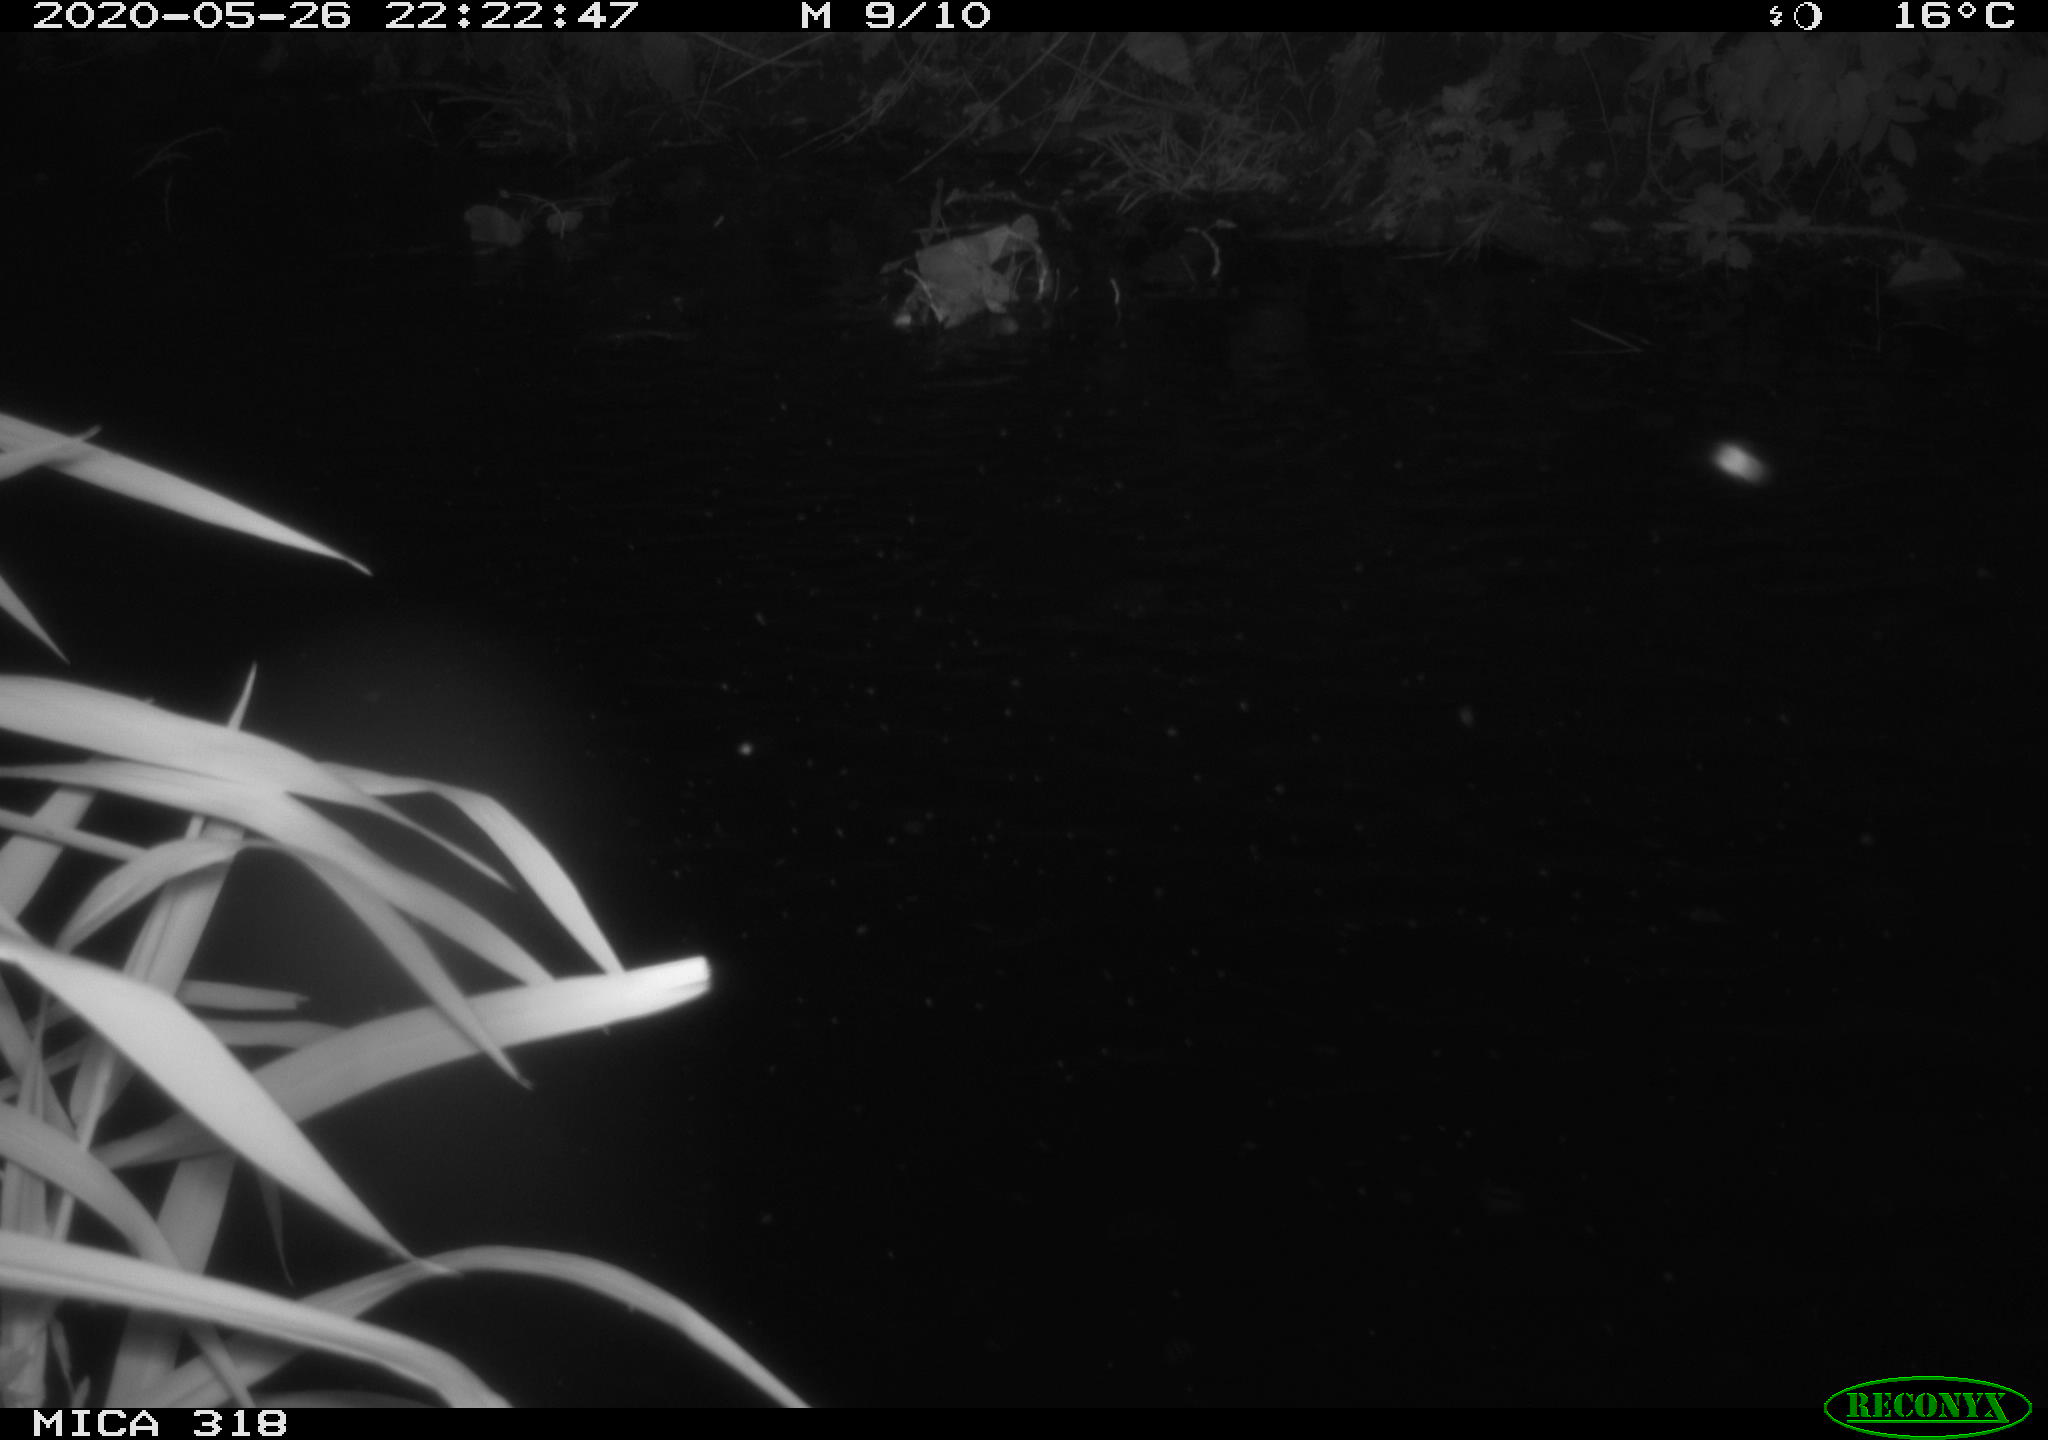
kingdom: Animalia
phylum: Chordata
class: Aves
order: Anseriformes
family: Anatidae
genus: Anas
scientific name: Anas platyrhynchos
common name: Mallard
